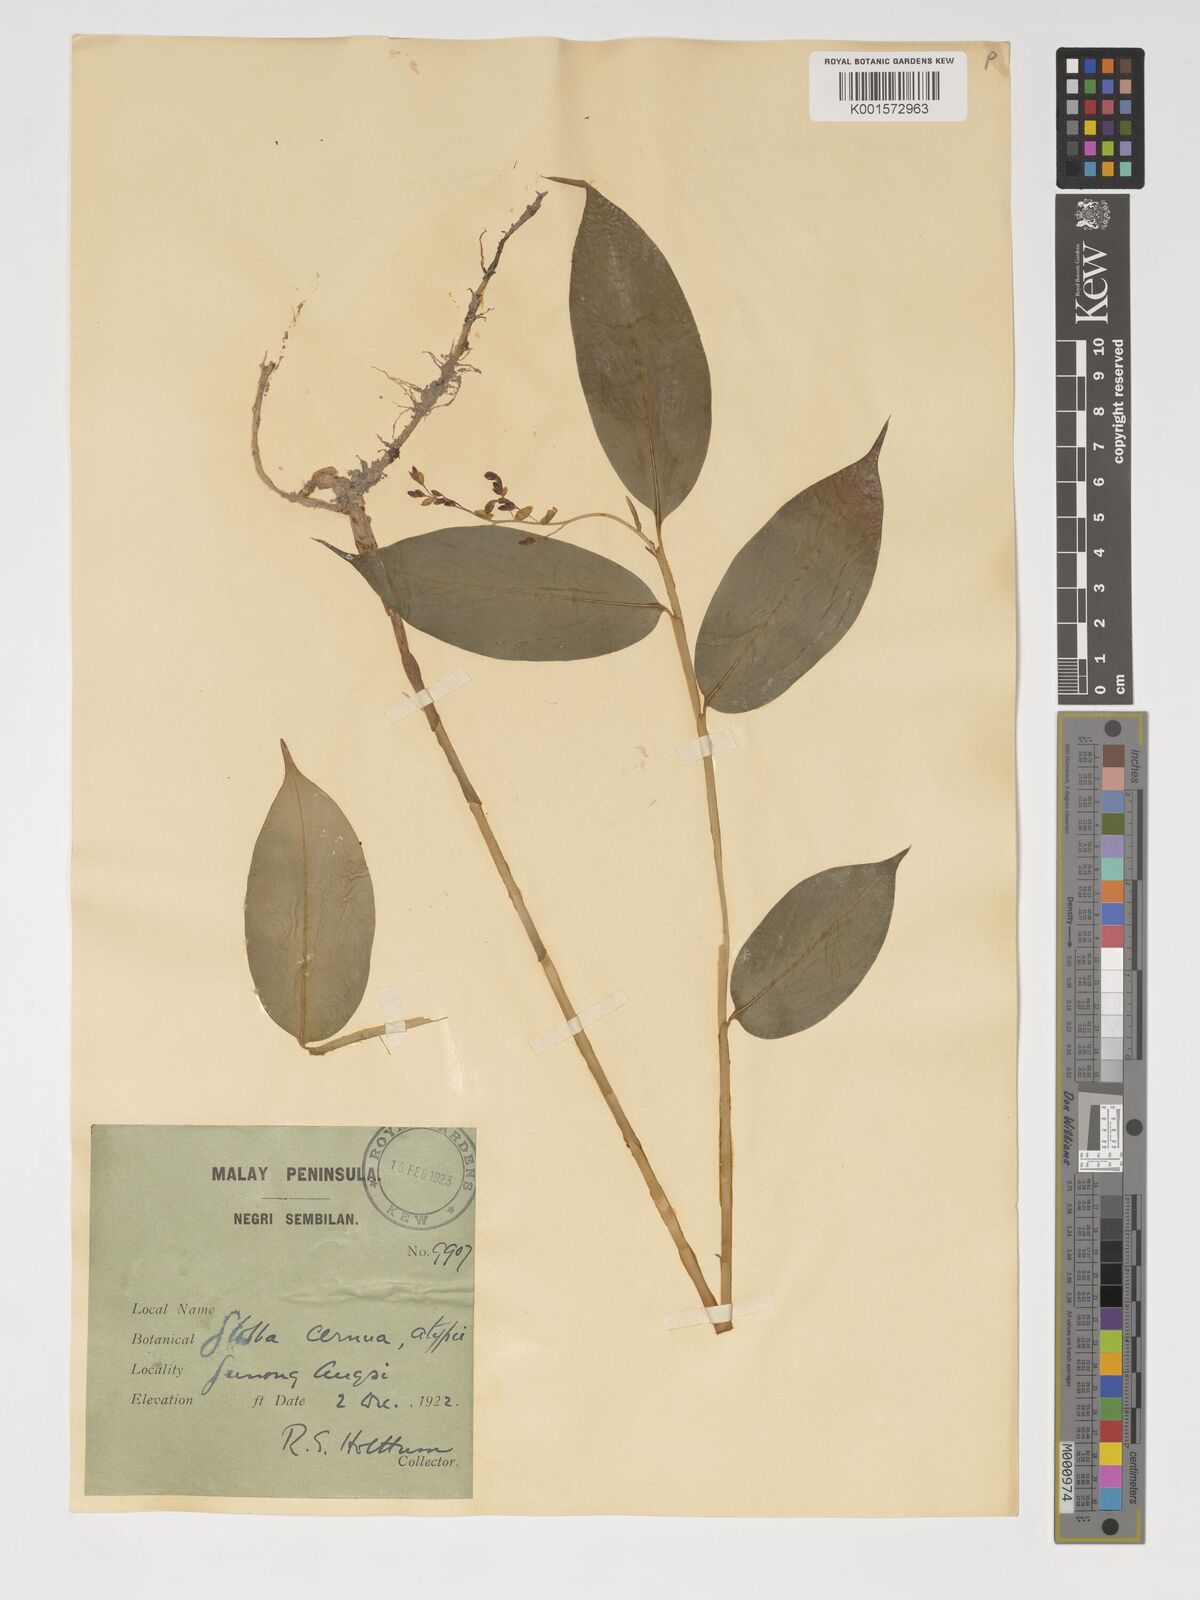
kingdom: Plantae
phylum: Tracheophyta
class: Liliopsida
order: Zingiberales
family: Zingiberaceae
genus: Globba
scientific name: Globba cernua
